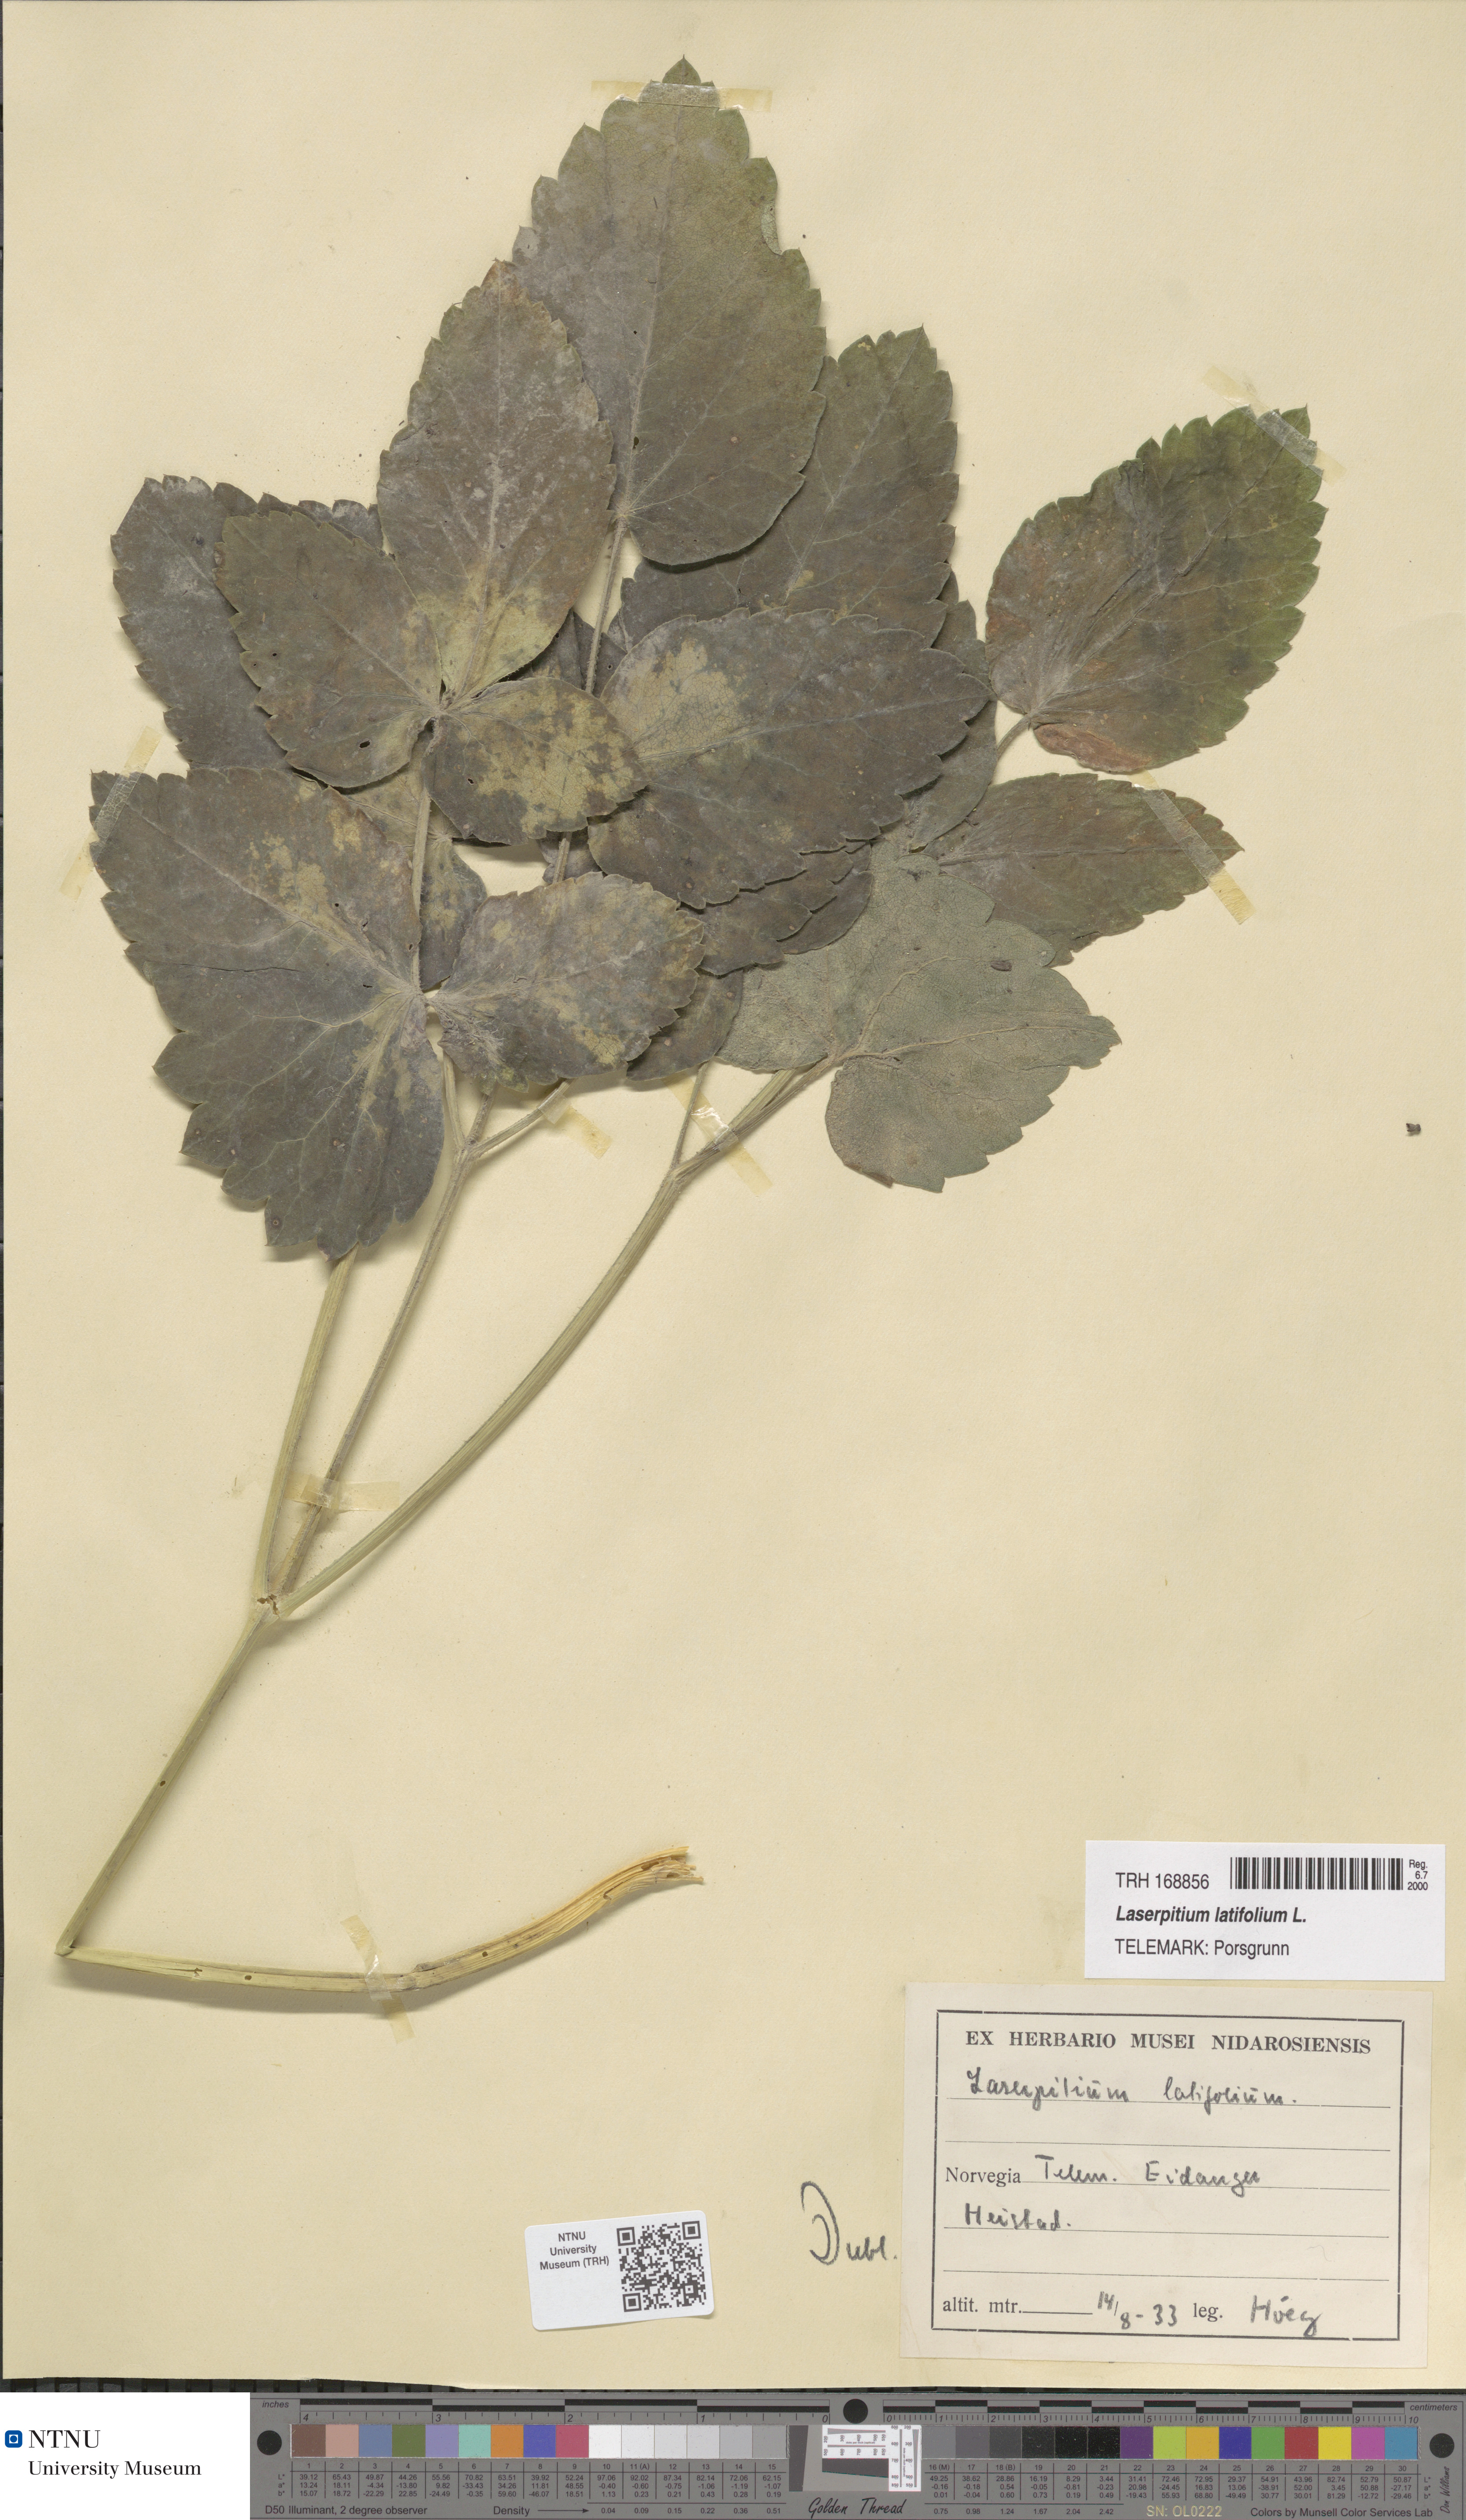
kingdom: Plantae
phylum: Tracheophyta
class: Magnoliopsida
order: Apiales
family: Apiaceae
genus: Laserpitium
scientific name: Laserpitium latifolium
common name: Broadleaf sermountain
